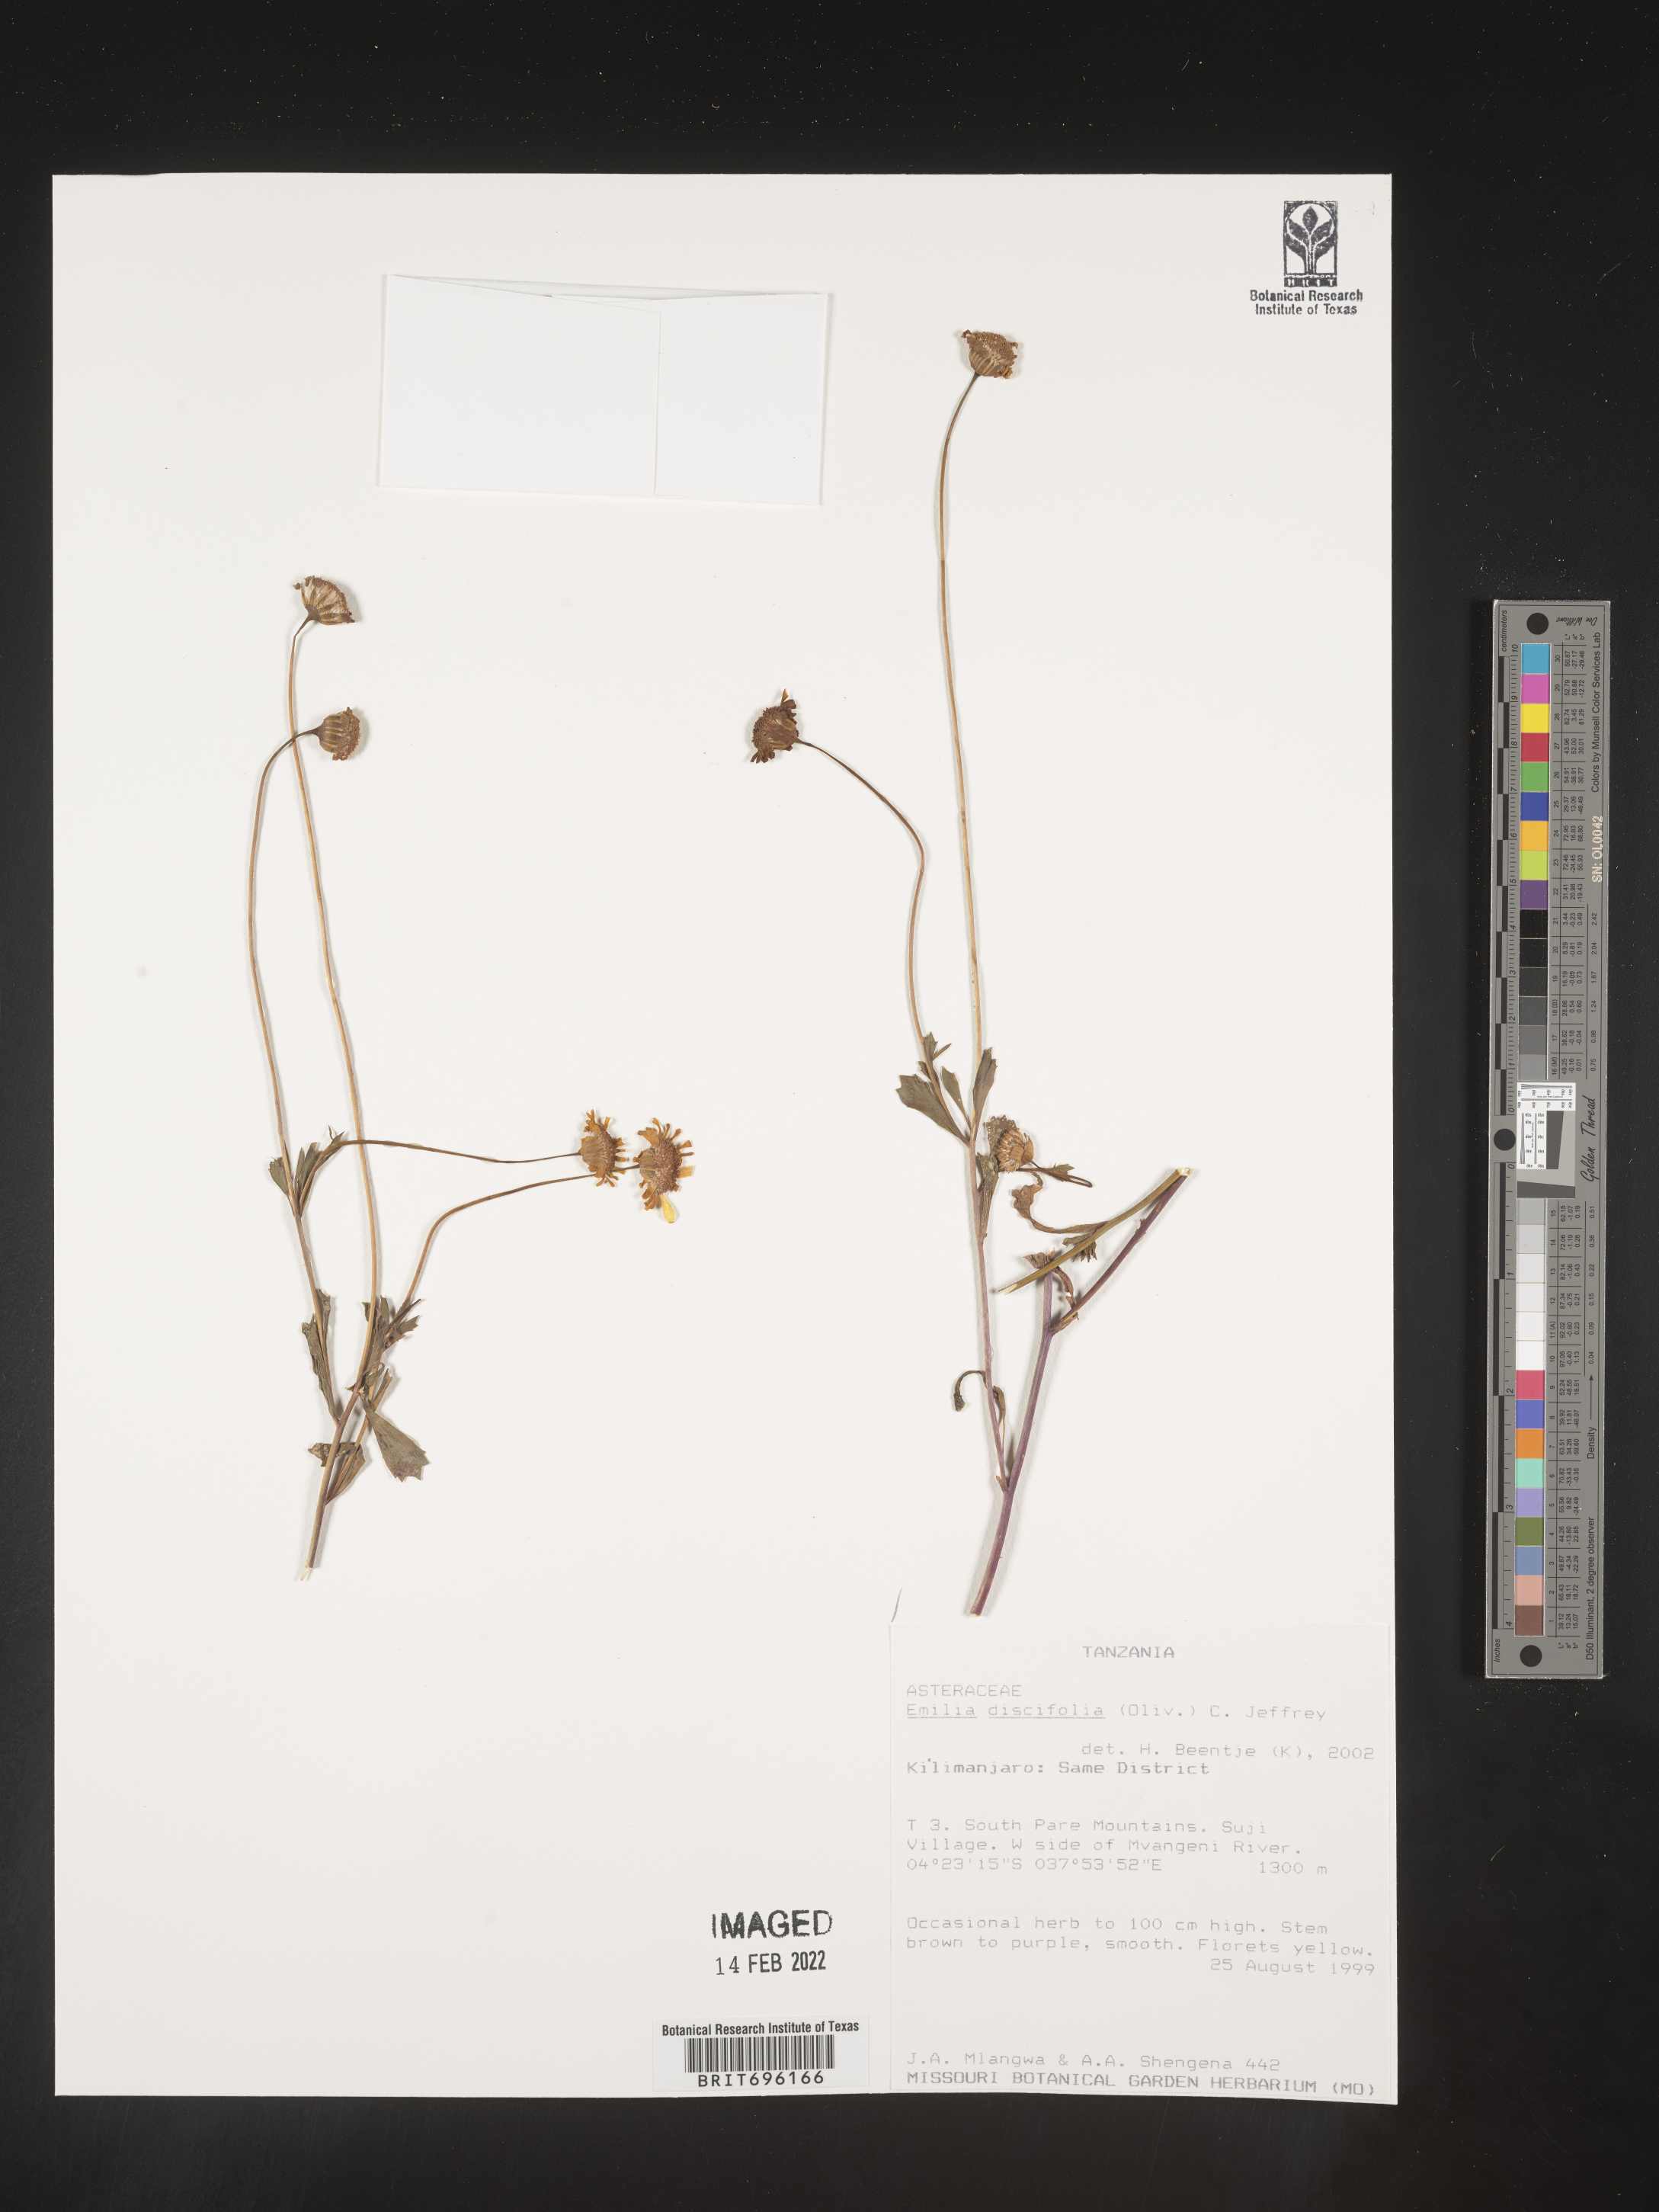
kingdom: Plantae
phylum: Tracheophyta
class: Magnoliopsida
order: Asterales
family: Asteraceae
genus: Emilia
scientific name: Emilia
